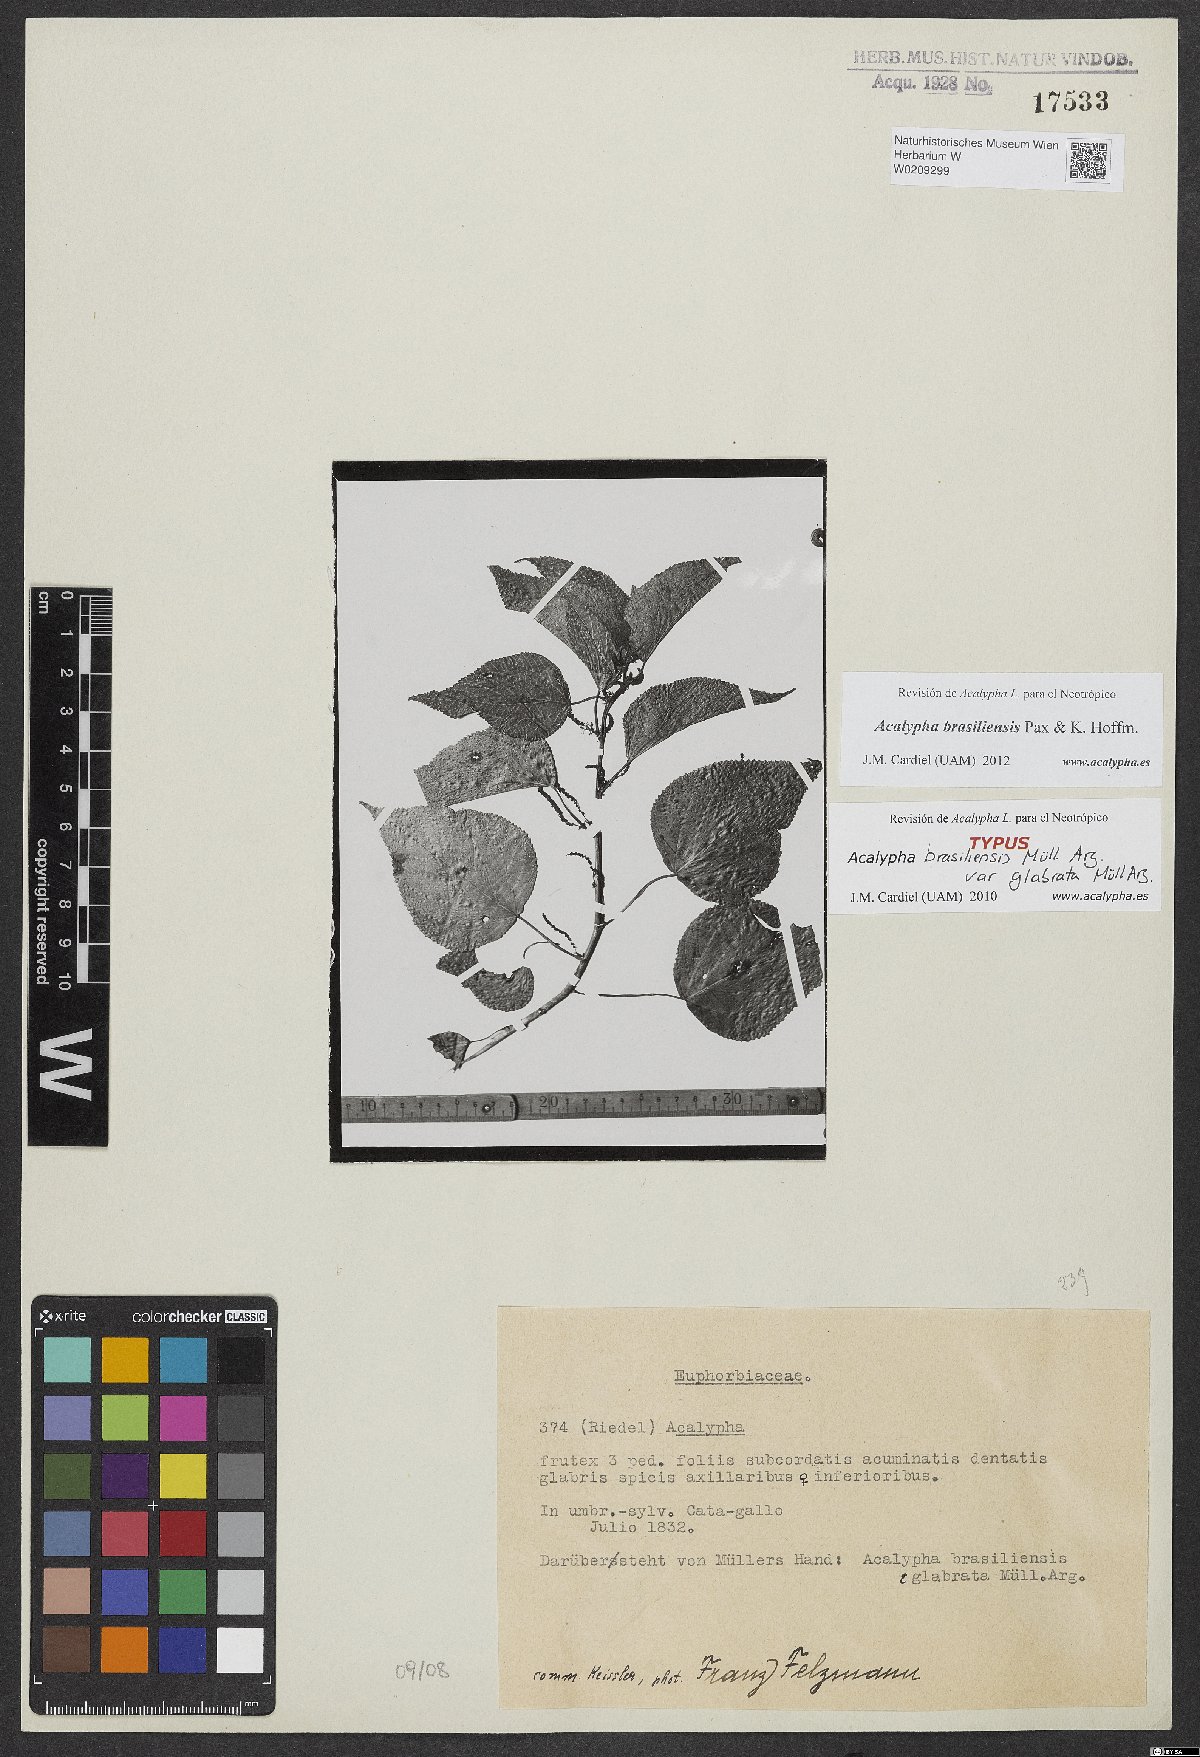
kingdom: Plantae
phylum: Tracheophyta
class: Magnoliopsida
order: Malpighiales
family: Euphorbiaceae
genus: Acalypha
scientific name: Acalypha brasiliensis
